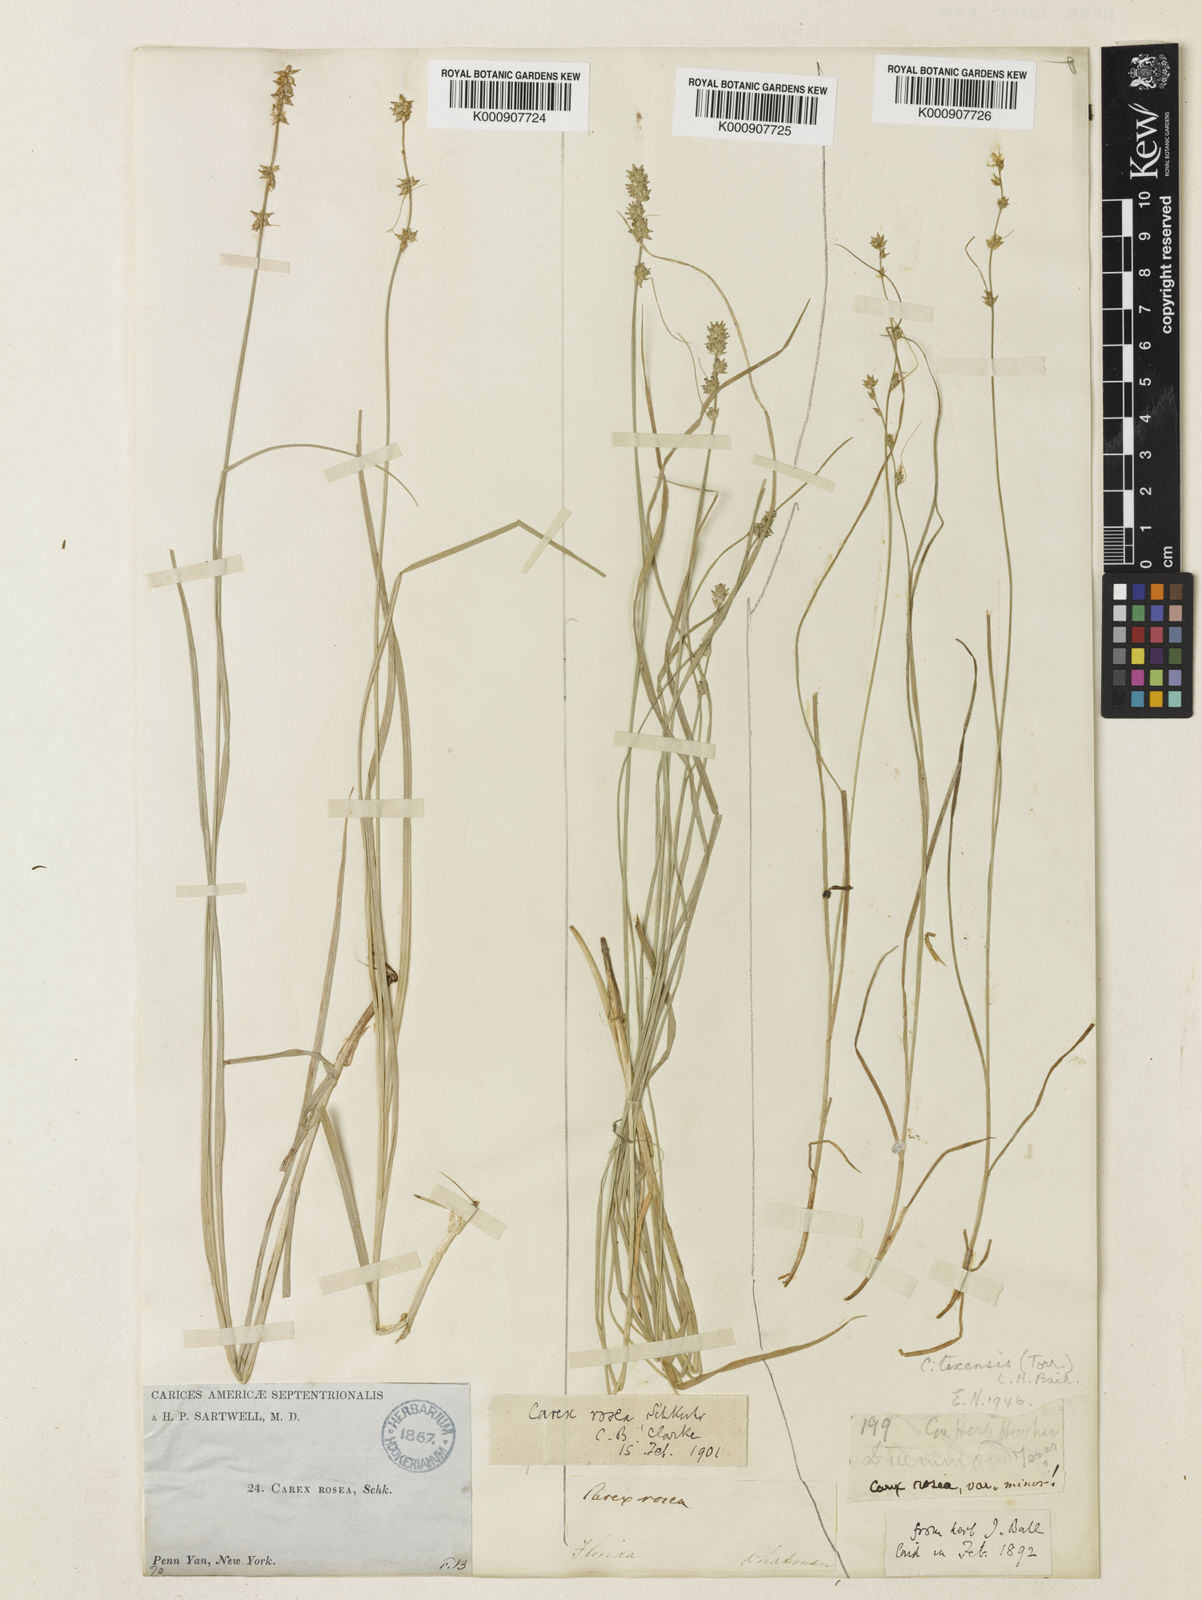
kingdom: Plantae
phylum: Tracheophyta
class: Liliopsida
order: Poales
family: Cyperaceae
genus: Carex
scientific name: Carex texensis
